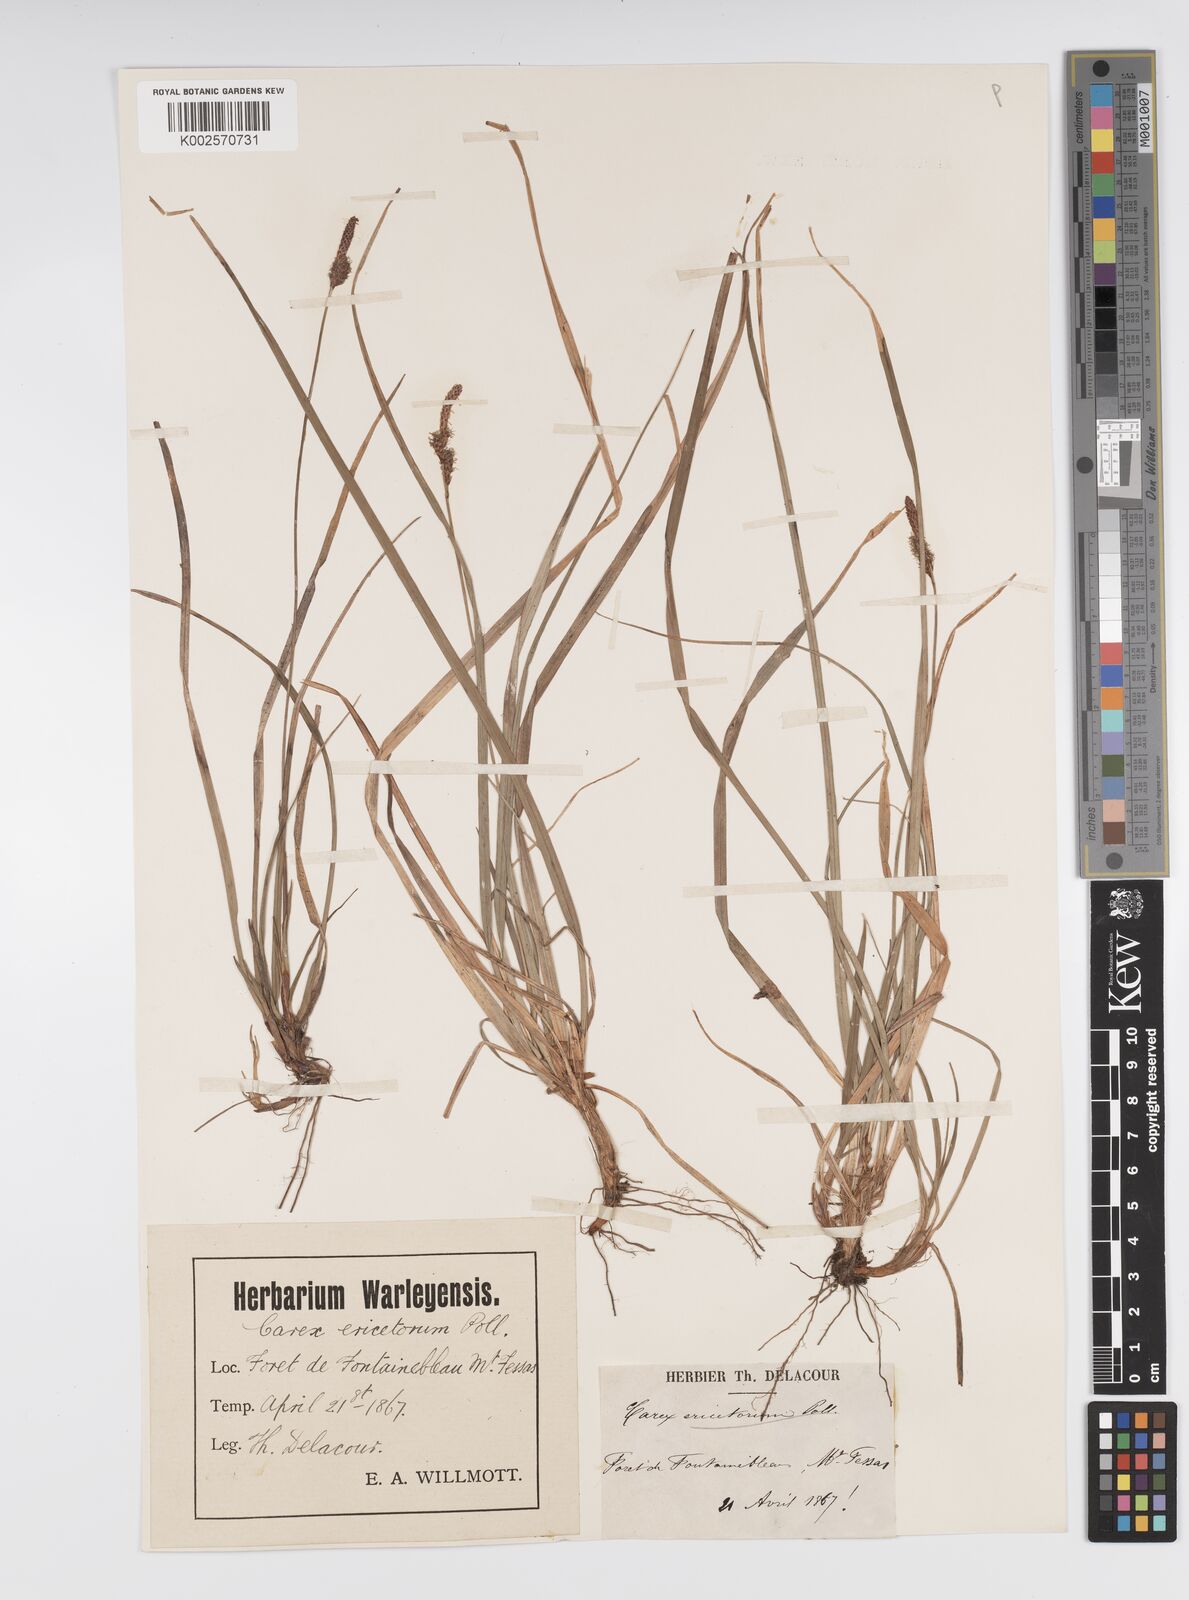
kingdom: Plantae
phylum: Tracheophyta
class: Liliopsida
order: Poales
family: Cyperaceae
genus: Carex
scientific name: Carex ericetorum
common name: Rare spring-sedge
